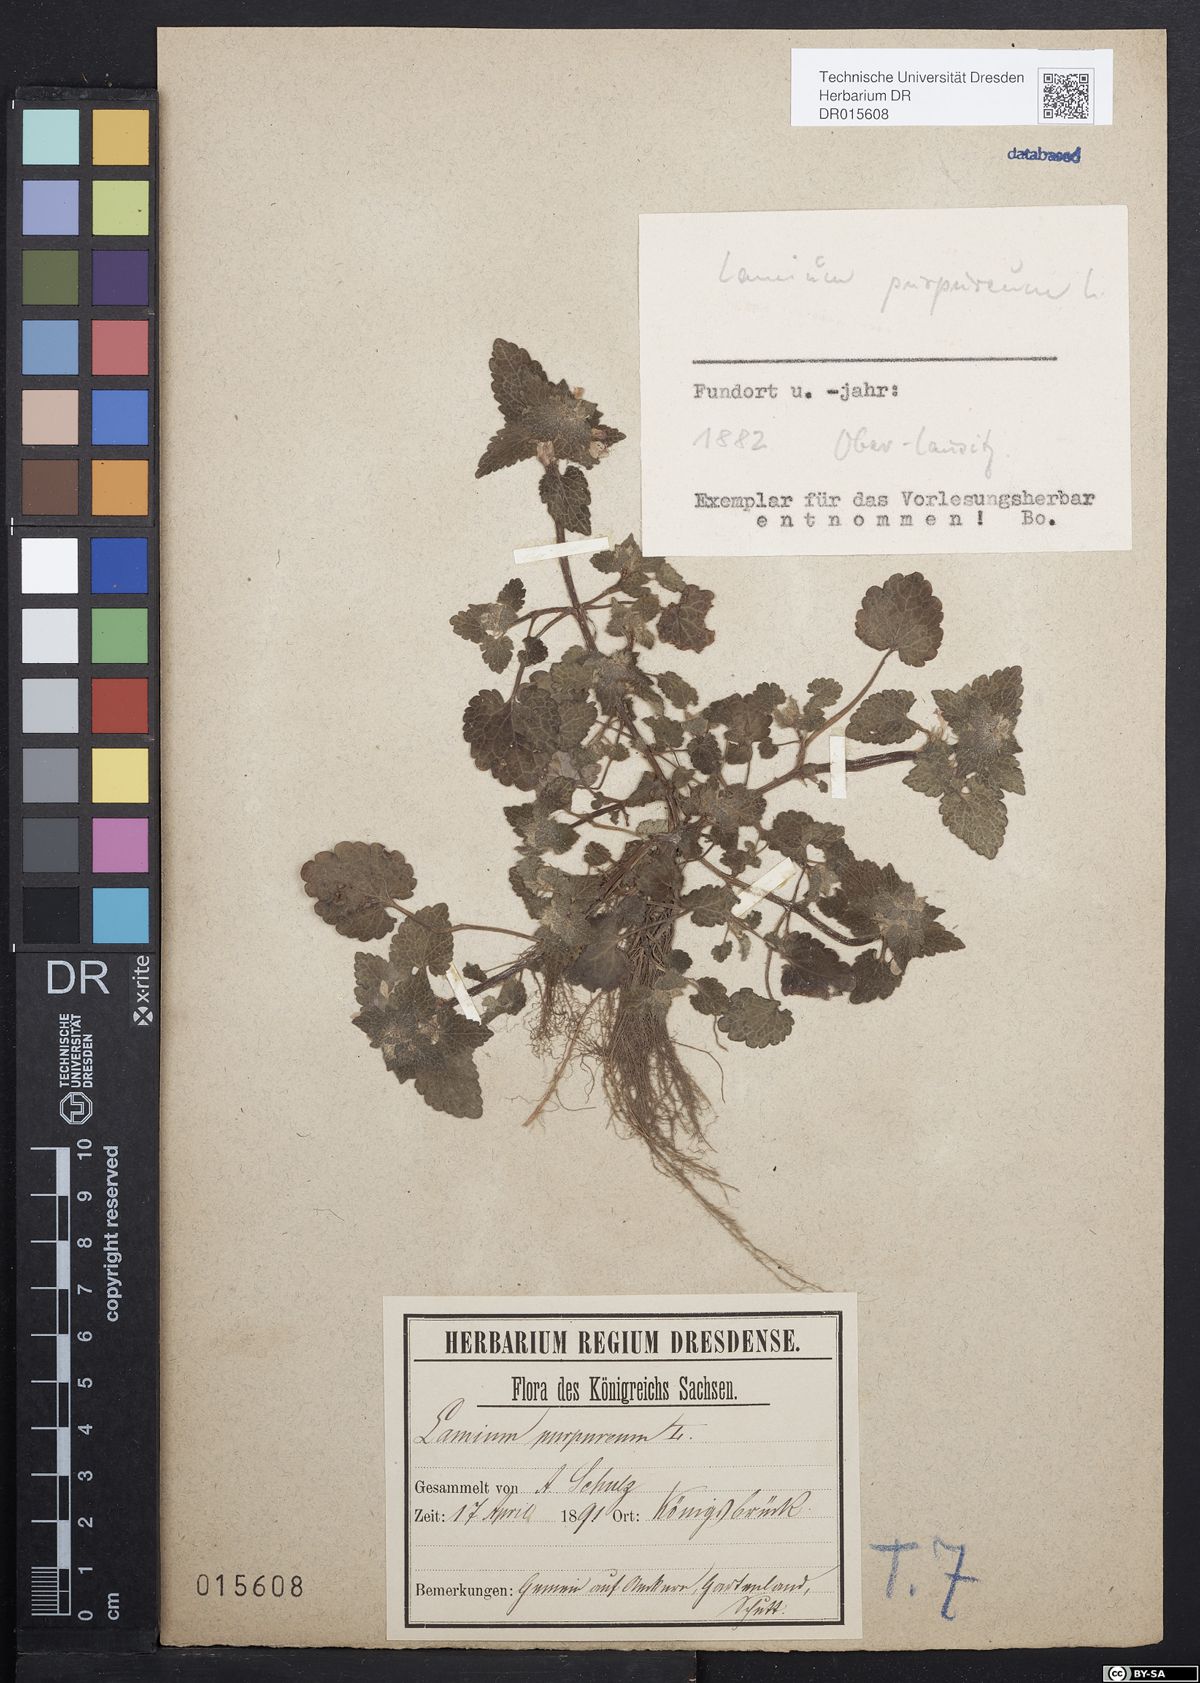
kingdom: Plantae
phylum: Tracheophyta
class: Magnoliopsida
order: Lamiales
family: Lamiaceae
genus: Lamium
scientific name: Lamium purpureum
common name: Red dead-nettle
